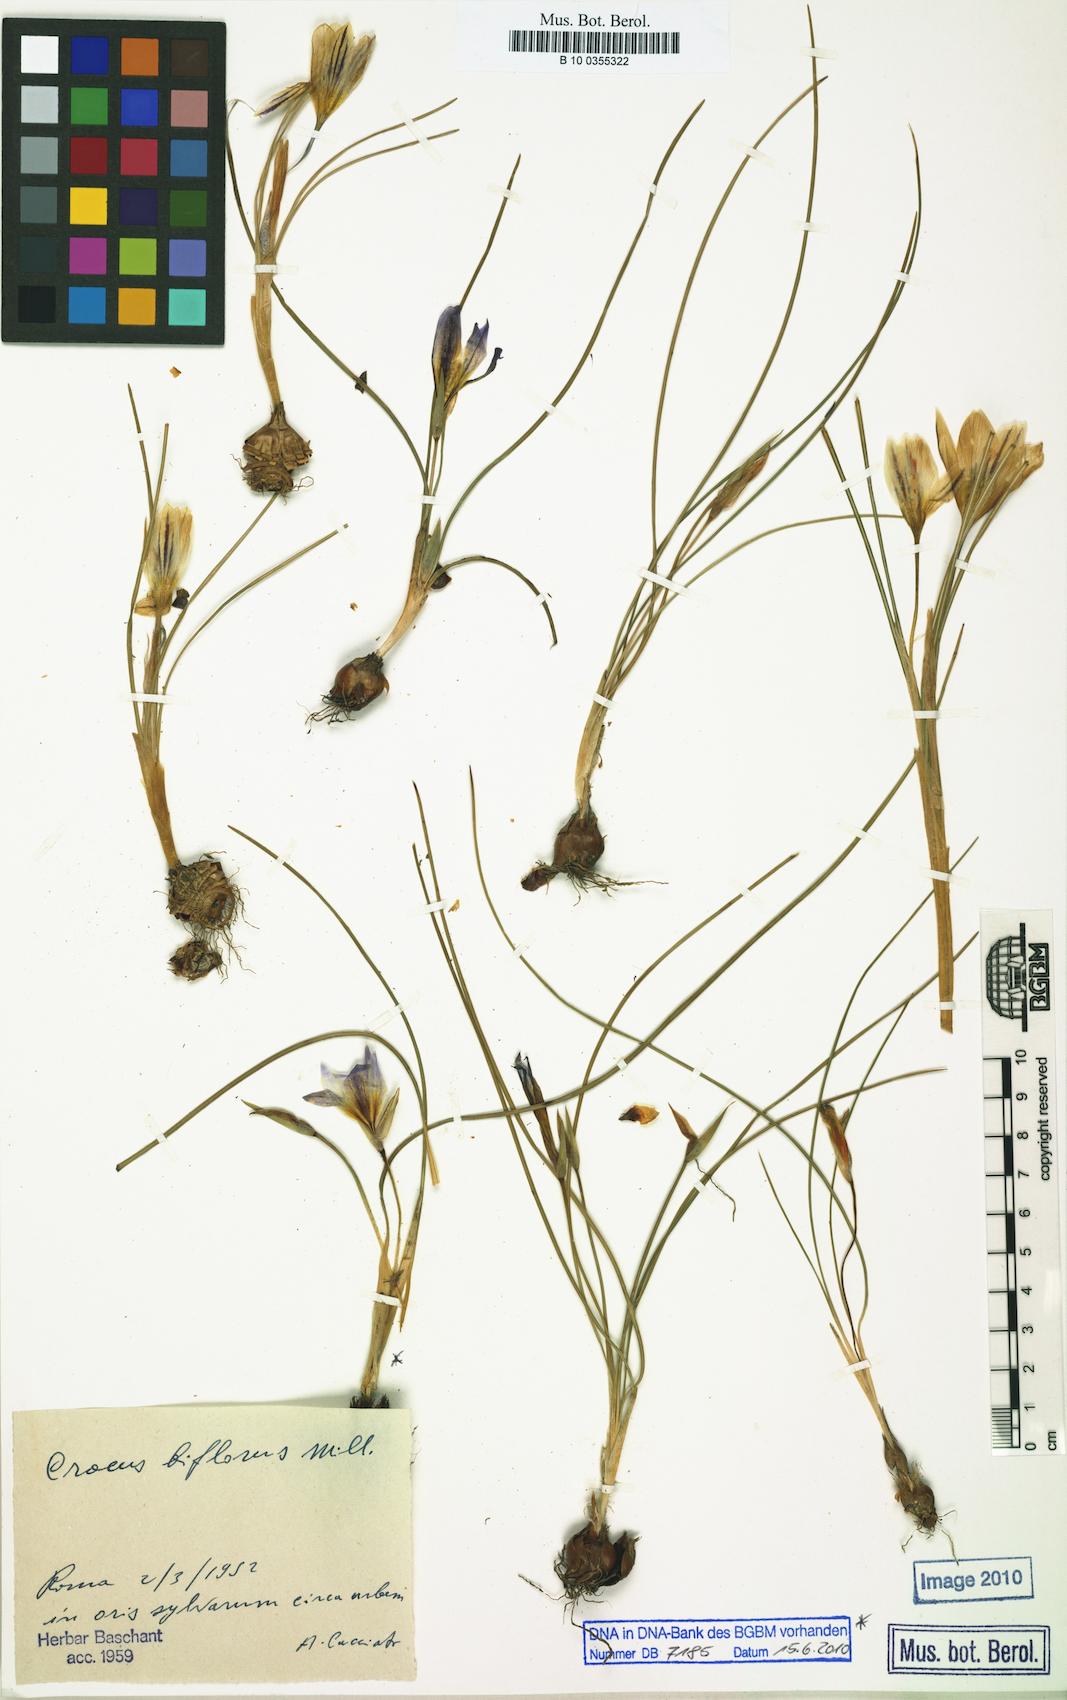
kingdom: Plantae
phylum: Tracheophyta
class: Liliopsida
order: Asparagales
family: Iridaceae
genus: Crocus
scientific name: Crocus biflorus
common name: Silvery crocus
